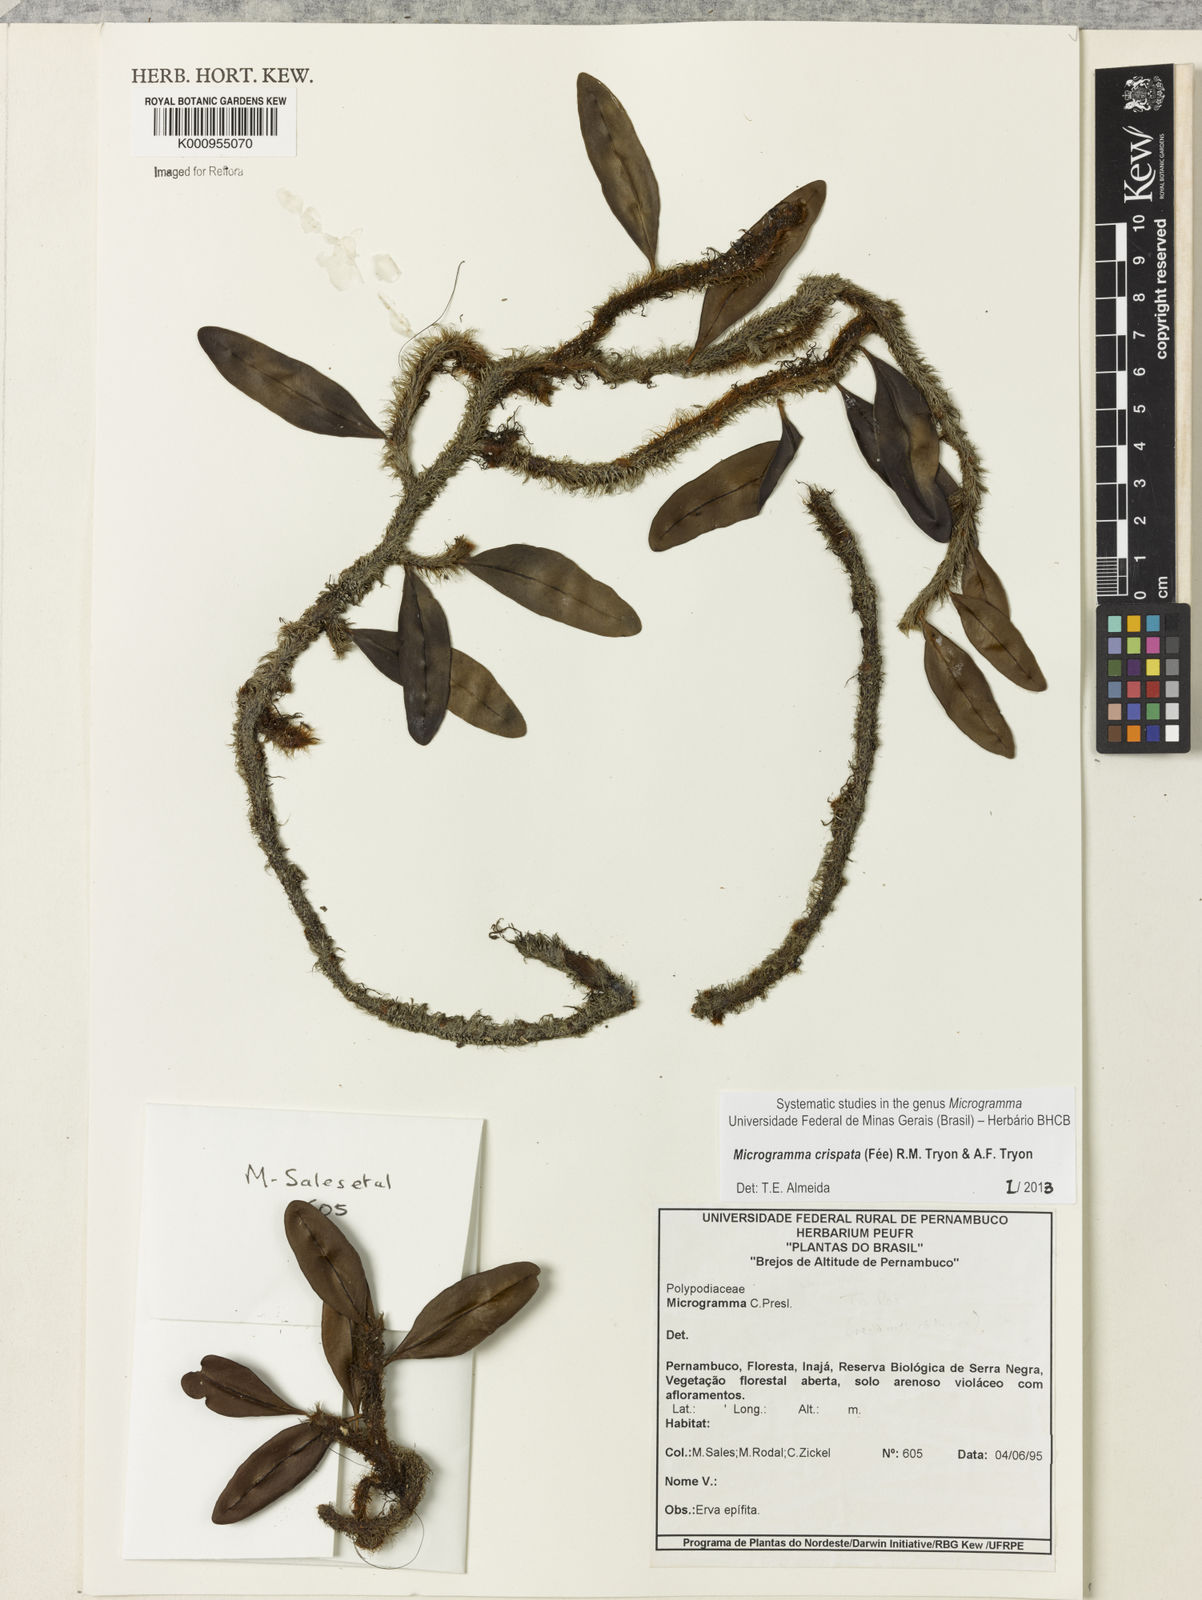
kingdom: Plantae
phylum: Tracheophyta
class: Polypodiopsida
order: Polypodiales
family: Polypodiaceae
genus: Microgramma
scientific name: Microgramma
